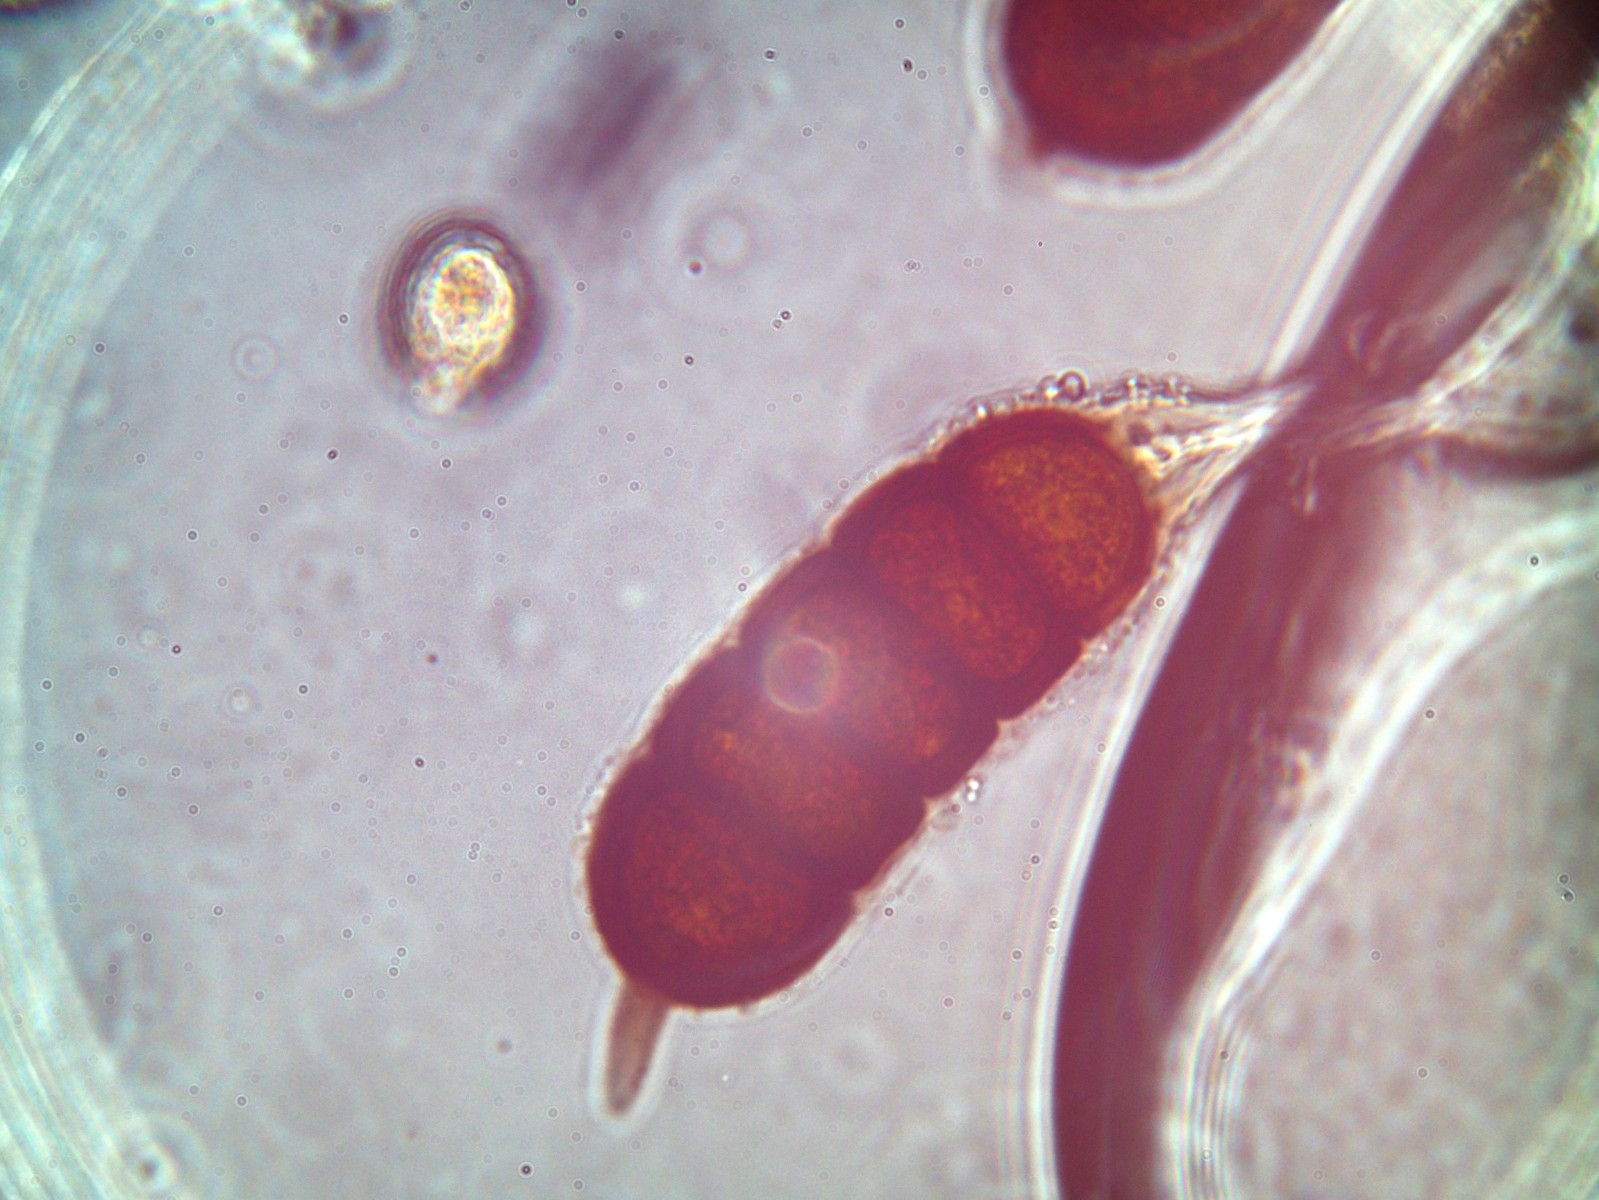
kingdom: Fungi
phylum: Basidiomycota
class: Pucciniomycetes
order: Pucciniales
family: Phragmidiaceae
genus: Phragmidium
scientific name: Phragmidium bulbosum
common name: brombær-flercellerust
